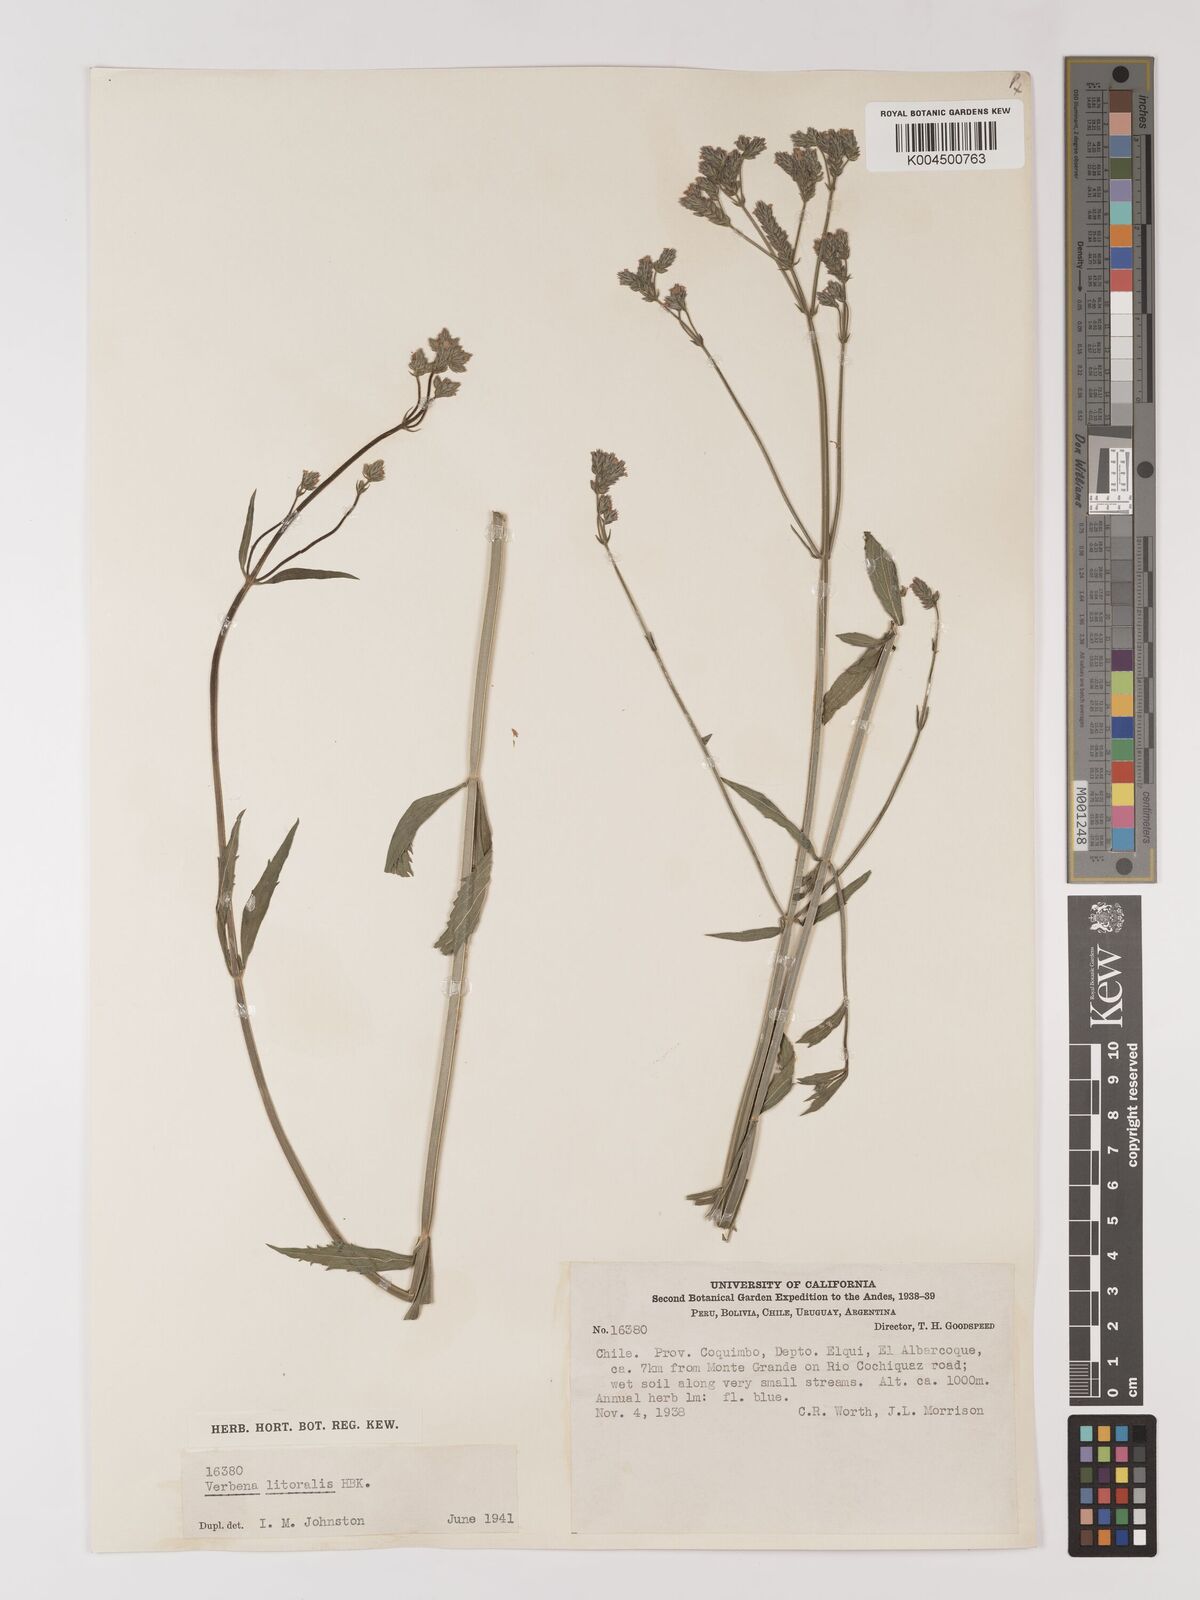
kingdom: Plantae
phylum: Tracheophyta
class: Magnoliopsida
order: Lamiales
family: Verbenaceae
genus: Verbena
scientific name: Verbena litoralis
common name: Seashore vervain
